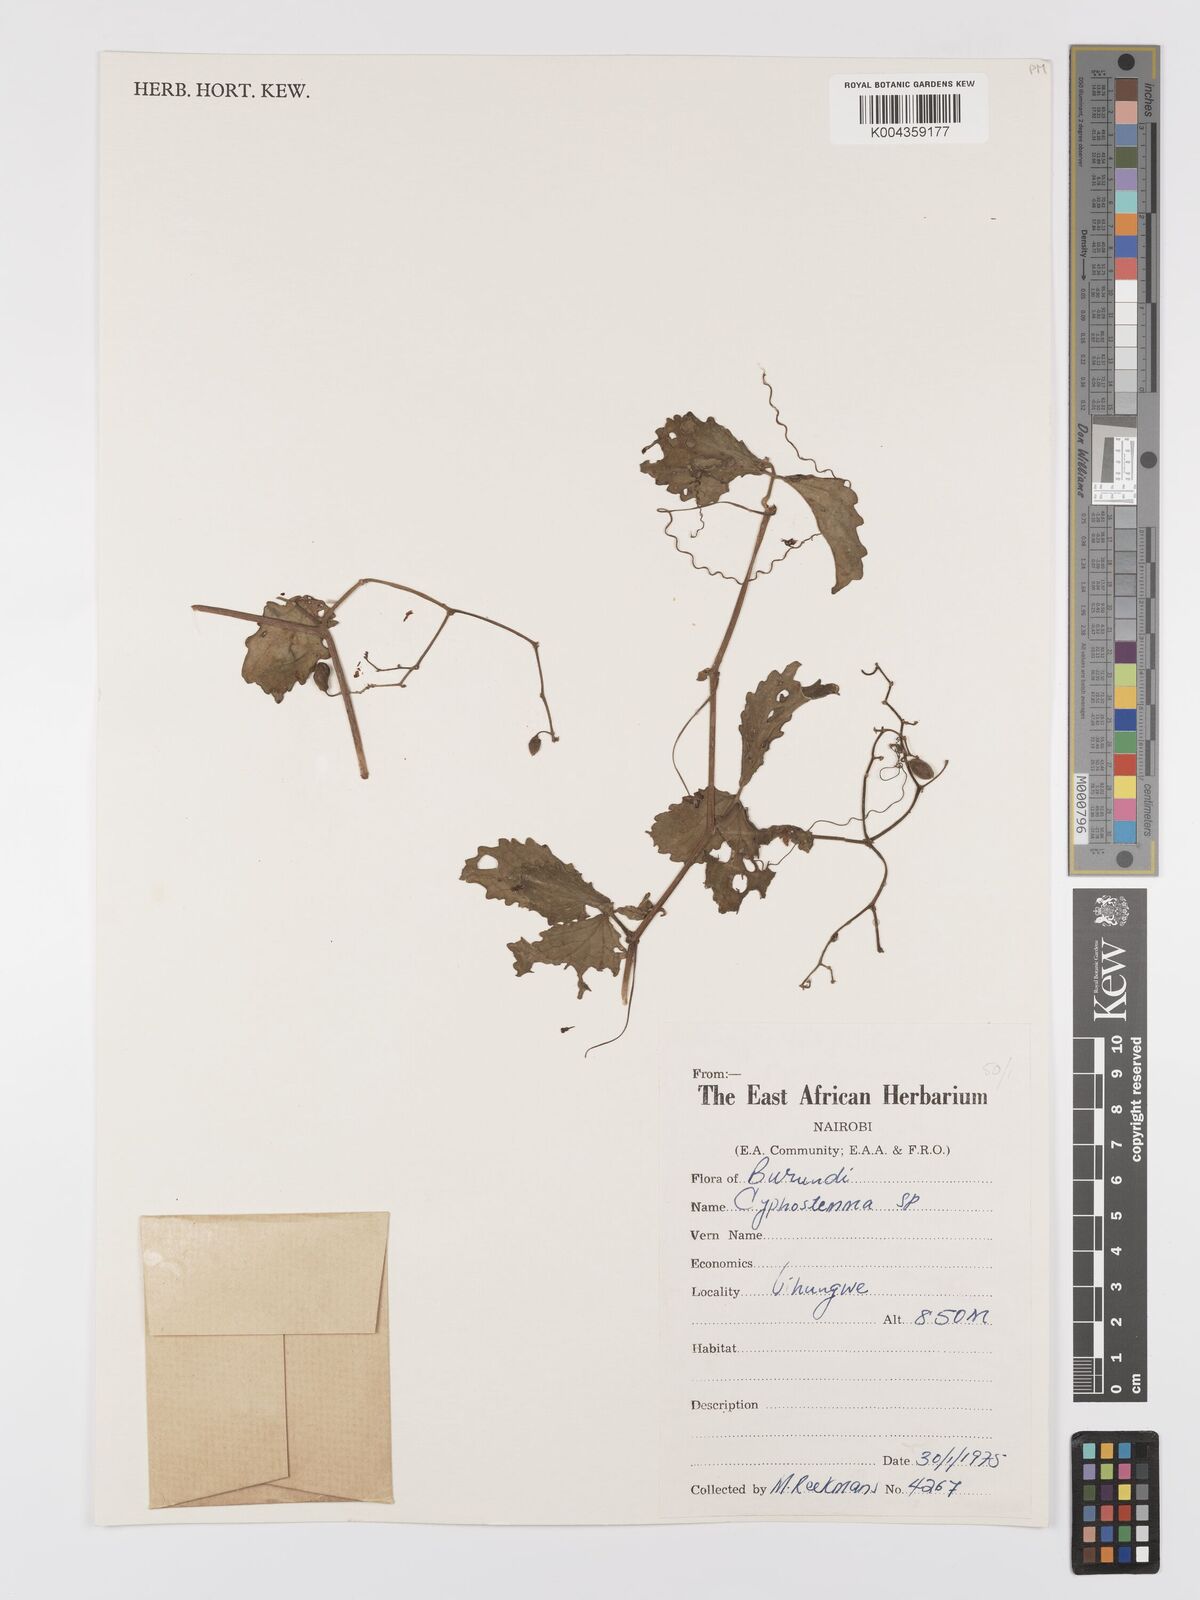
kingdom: Plantae
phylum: Tracheophyta
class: Magnoliopsida
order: Vitales
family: Vitaceae
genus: Cyphostemma
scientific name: Cyphostemma
